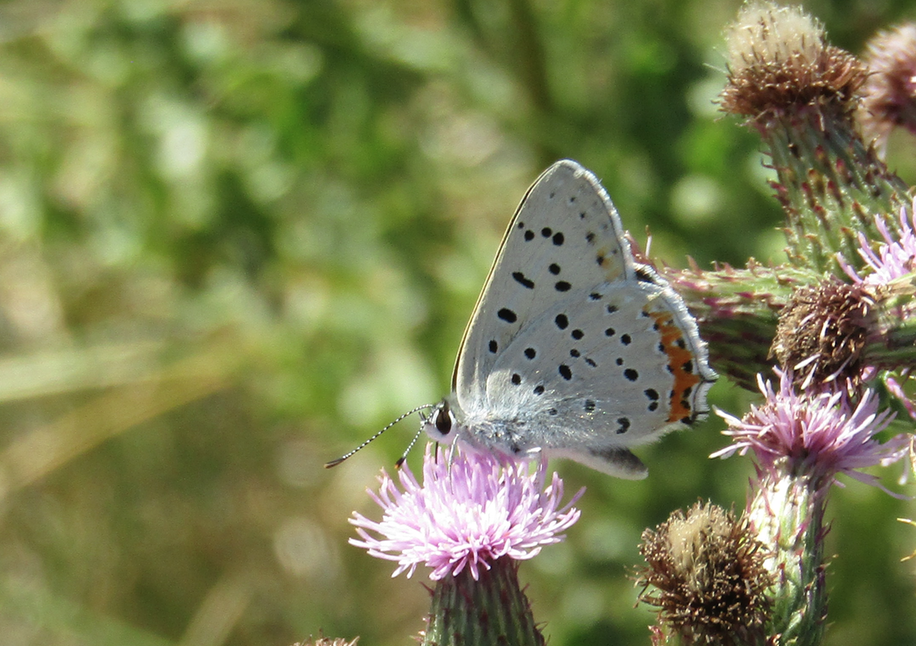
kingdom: Animalia
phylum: Arthropoda
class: Insecta
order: Lepidoptera
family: Lycaenidae
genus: Nacaduba
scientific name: Nacaduba dyopa
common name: Gray Copper
